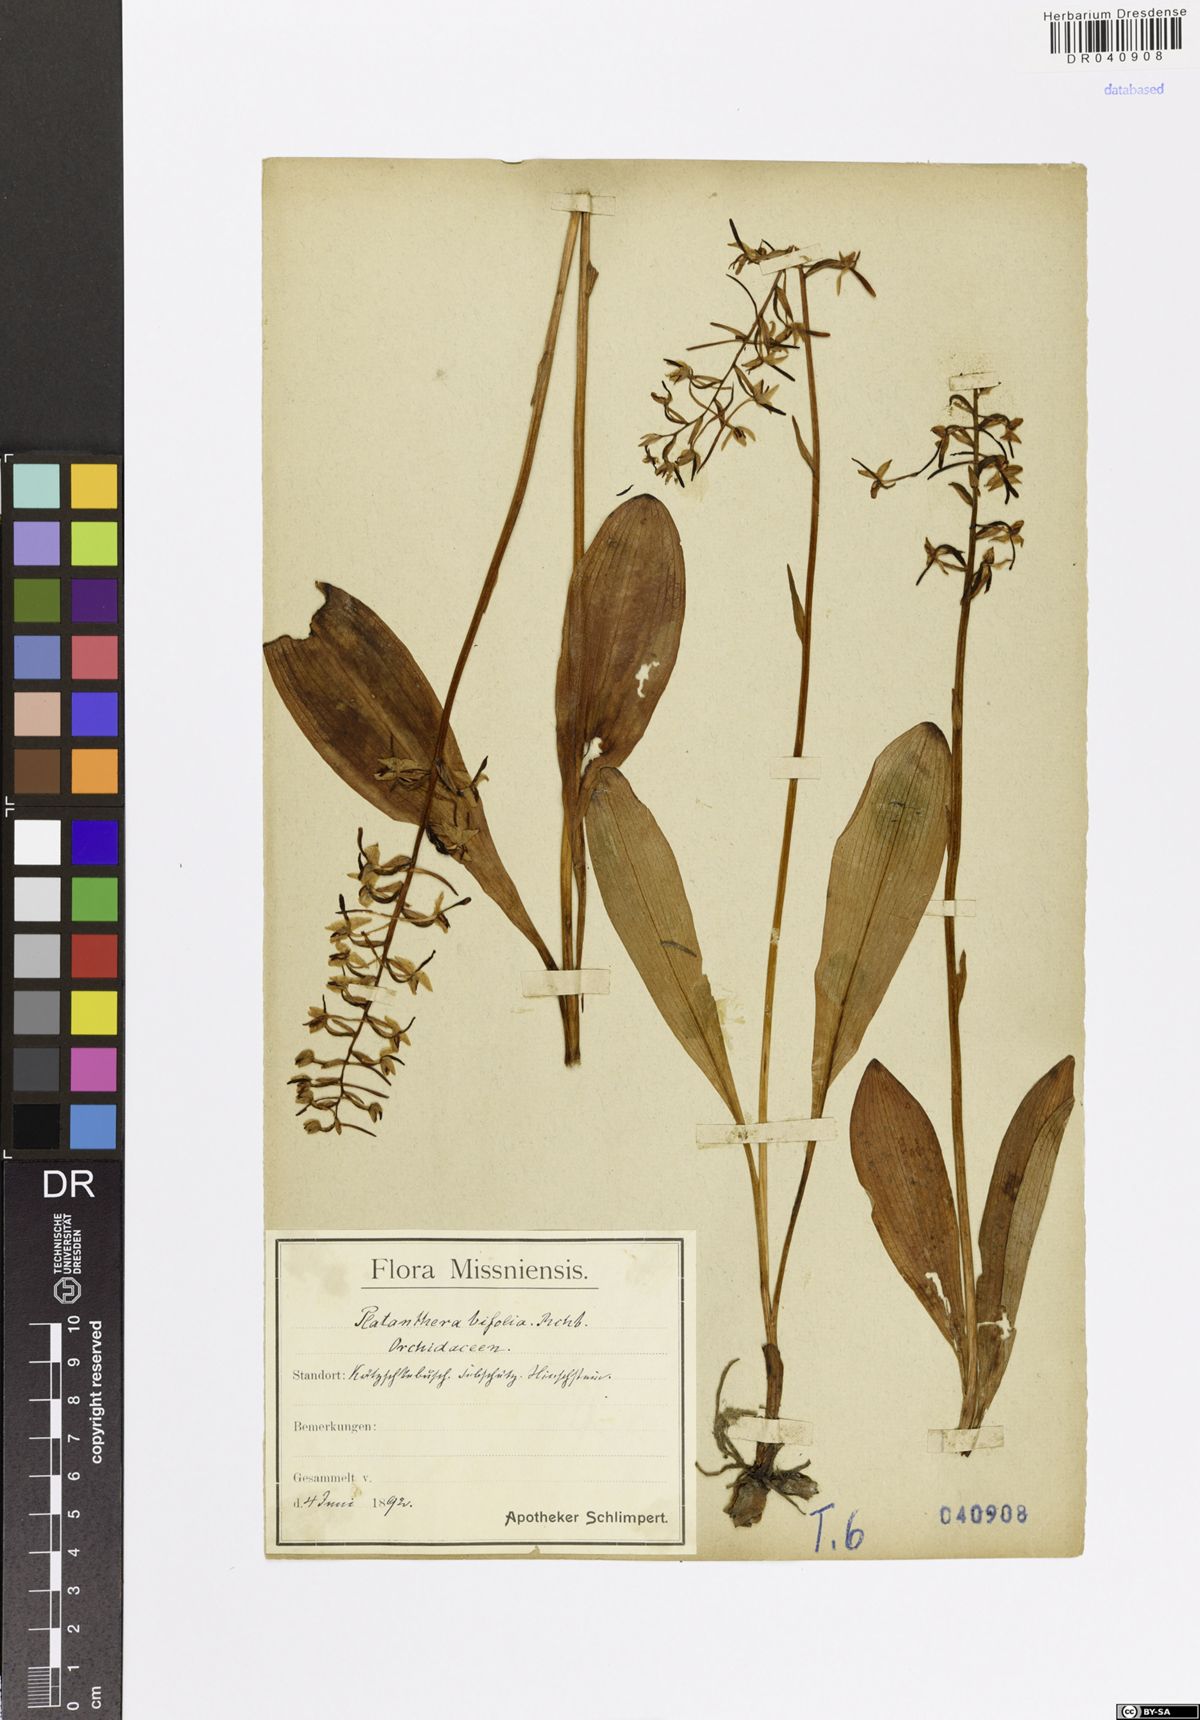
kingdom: Plantae
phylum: Tracheophyta
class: Liliopsida
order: Asparagales
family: Orchidaceae
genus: Platanthera
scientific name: Platanthera bifolia
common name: Lesser butterfly-orchid
